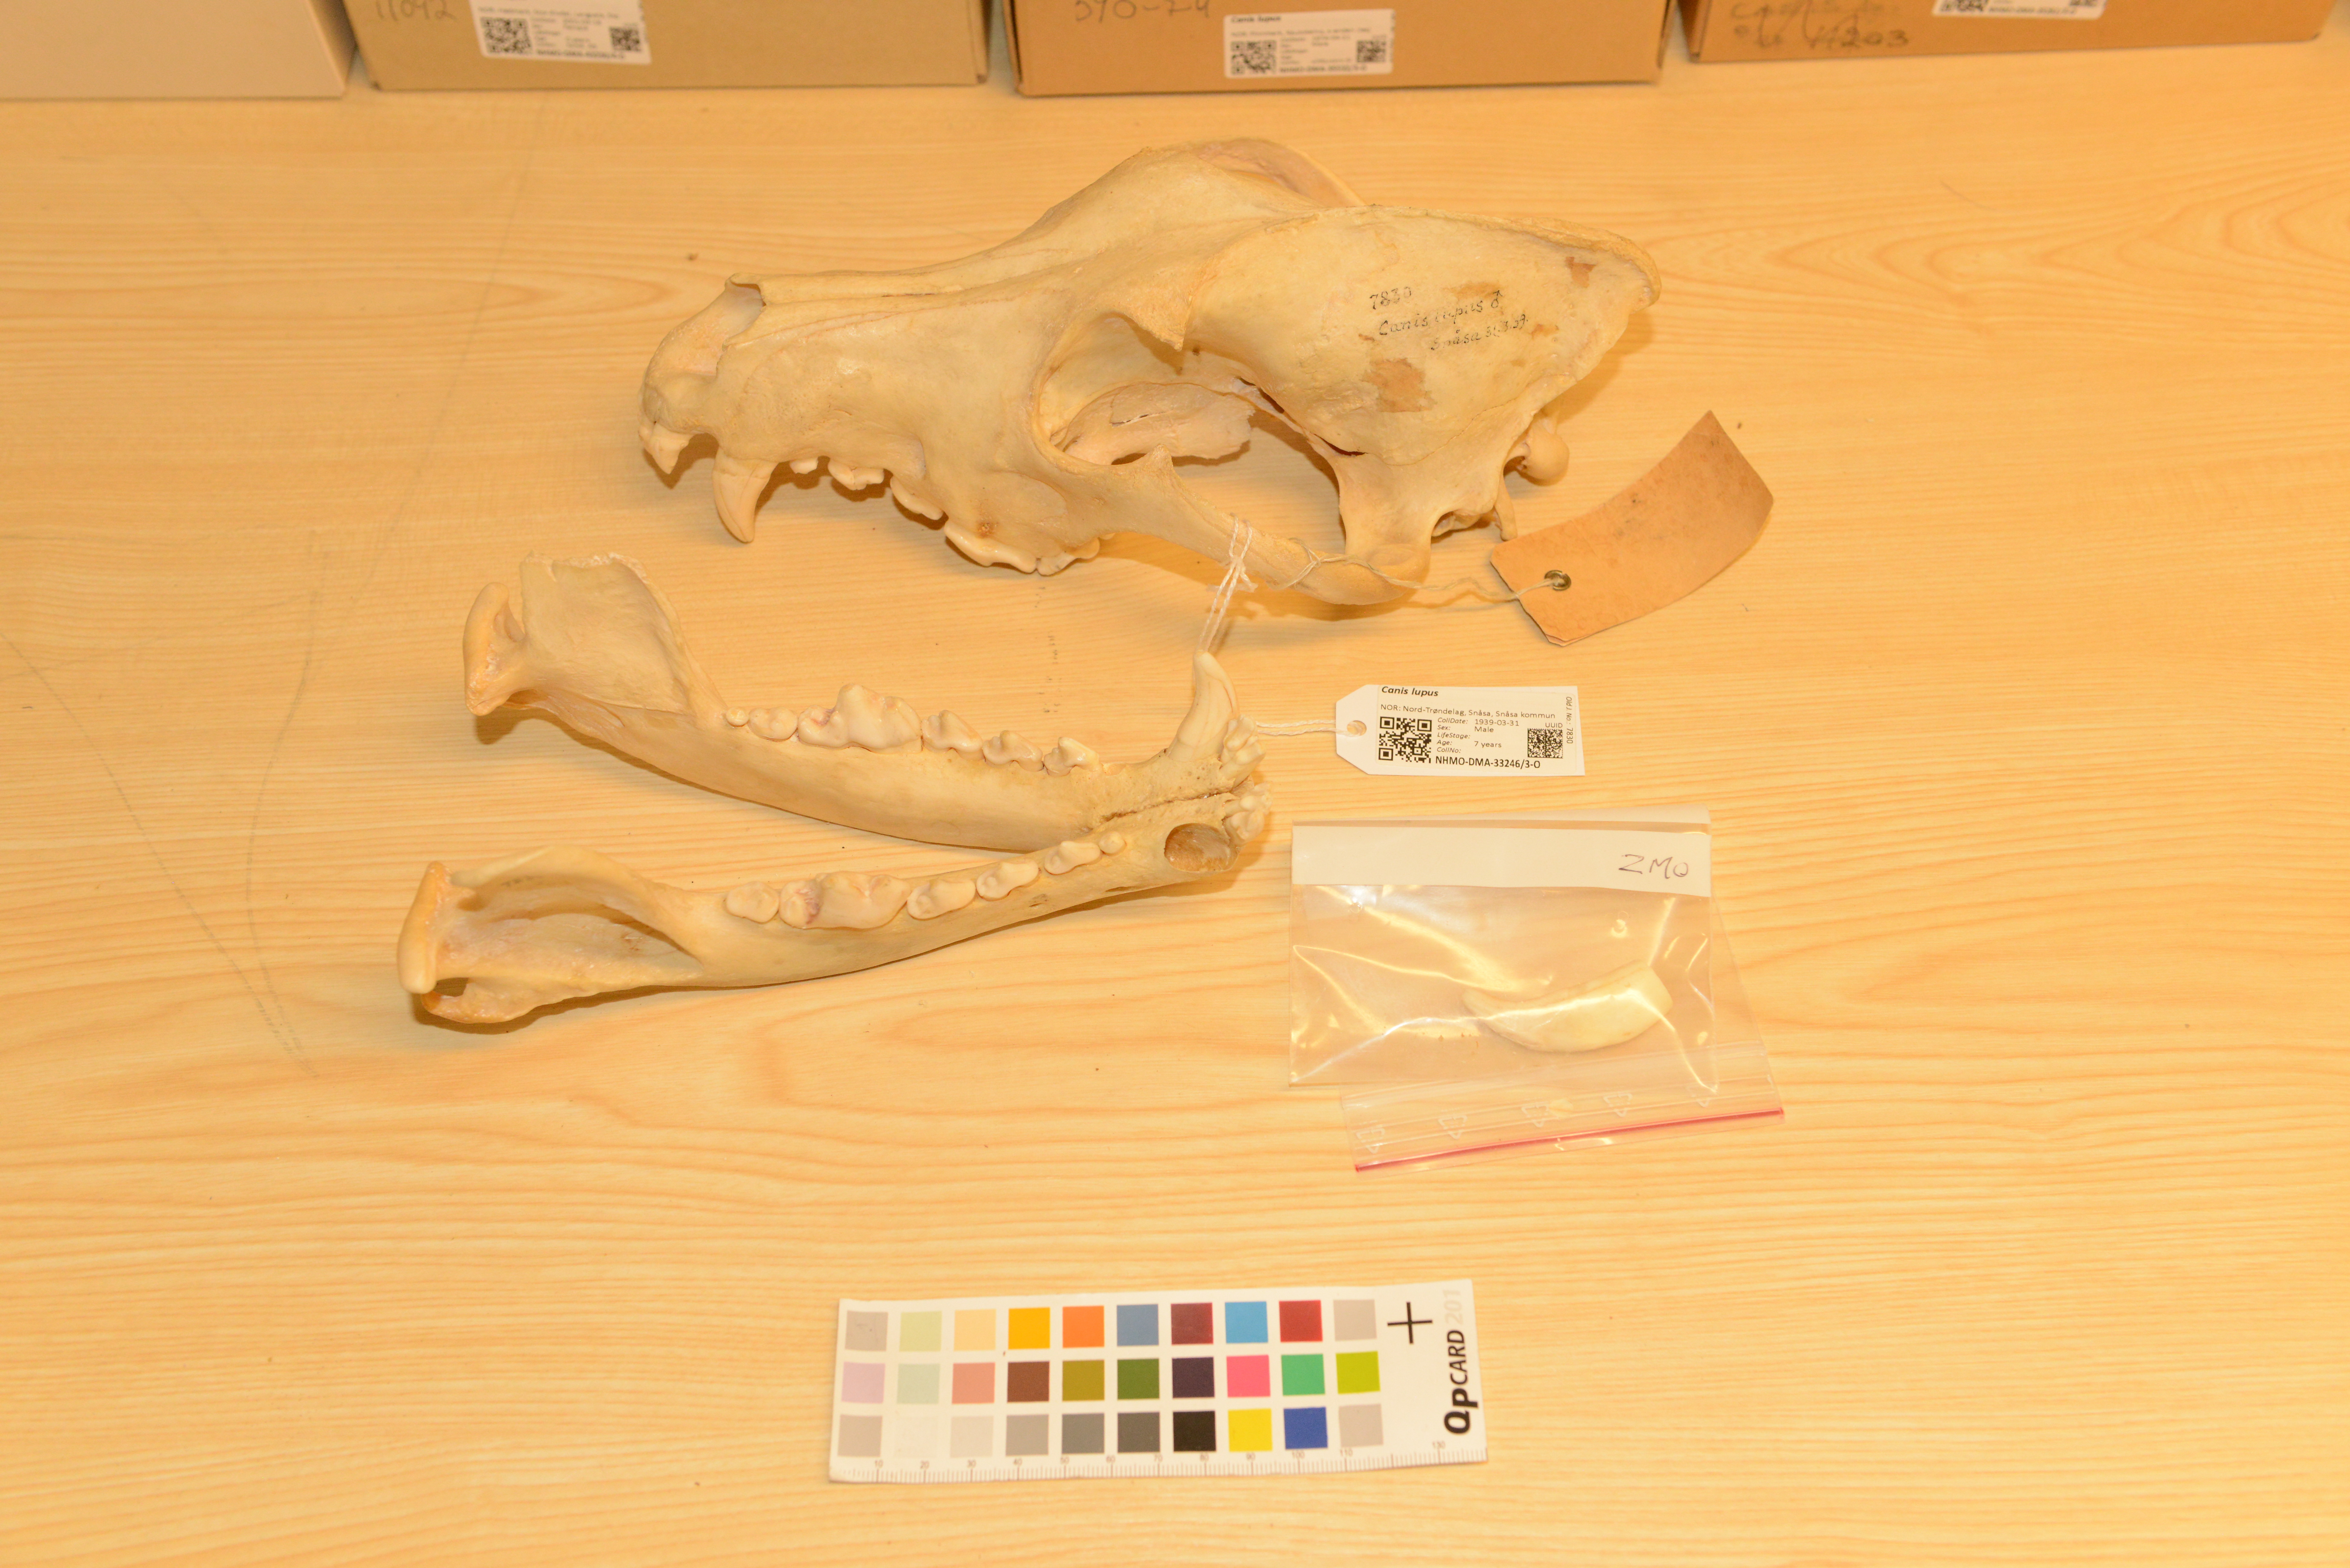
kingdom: Animalia
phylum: Chordata
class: Mammalia
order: Carnivora
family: Canidae
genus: Canis
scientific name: Canis lupus
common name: Gray wolf
